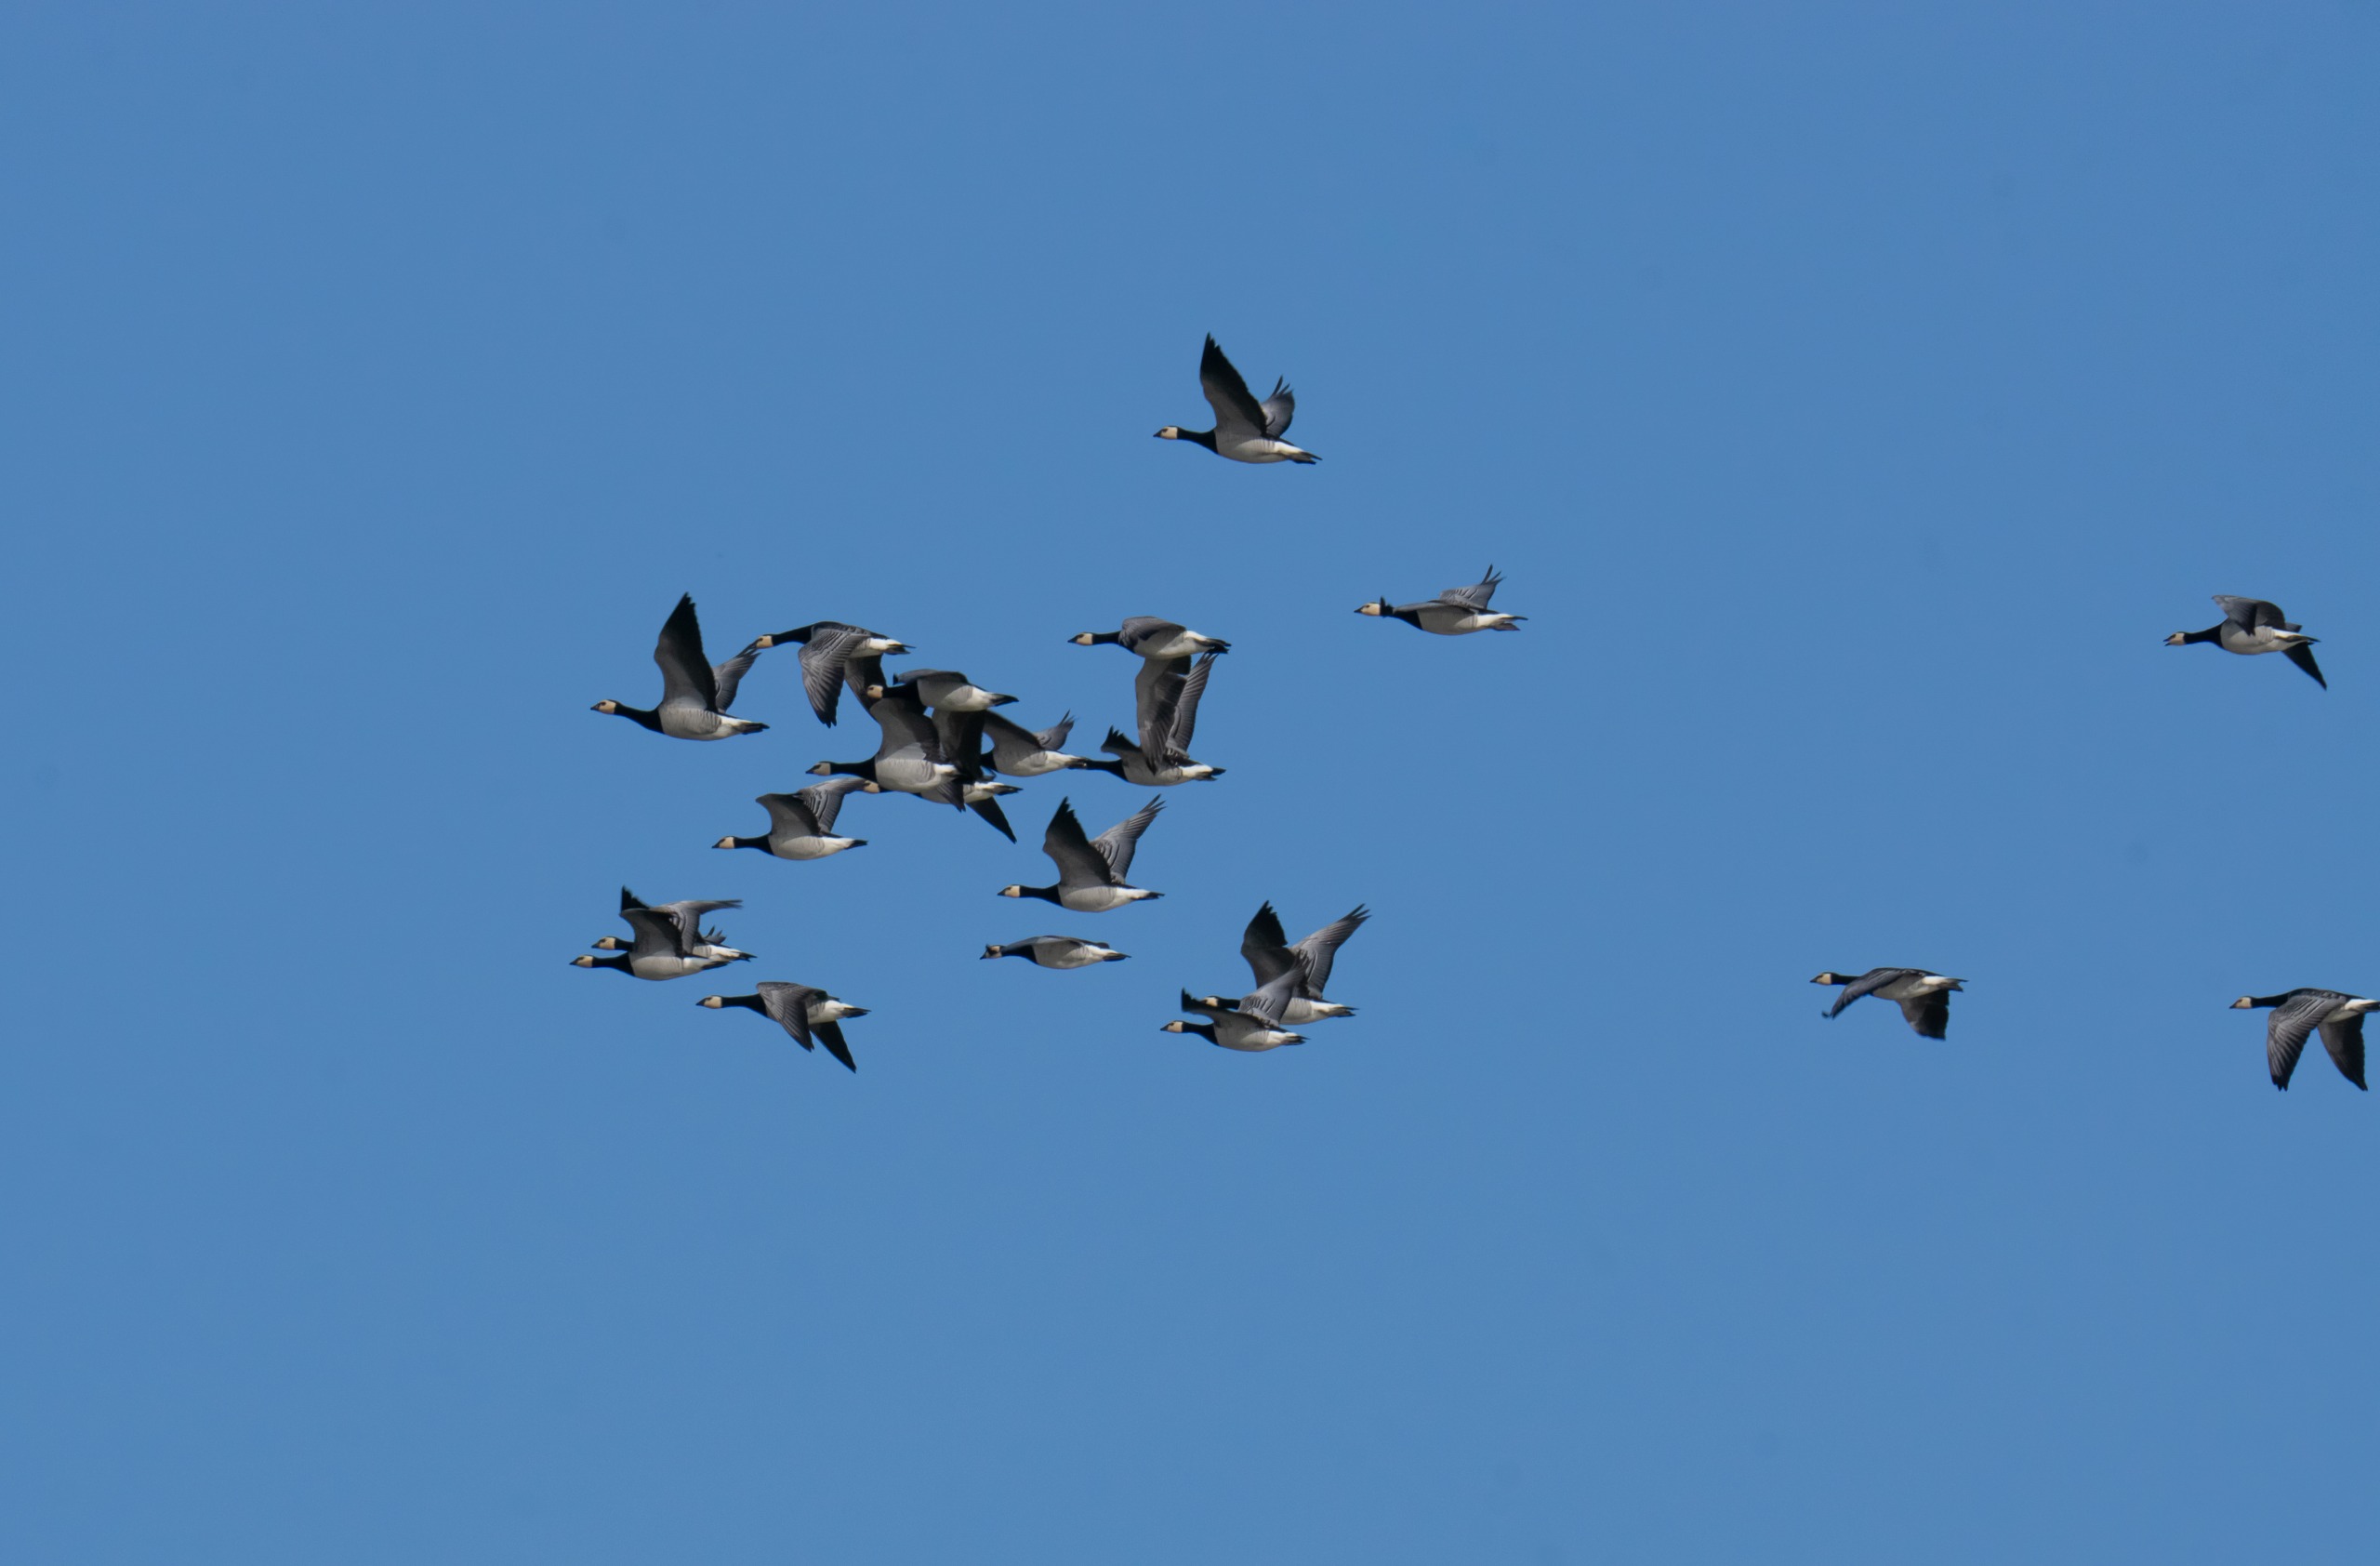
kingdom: Animalia
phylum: Chordata
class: Aves
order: Anseriformes
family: Anatidae
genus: Branta
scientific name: Branta leucopsis
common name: Bramgås
